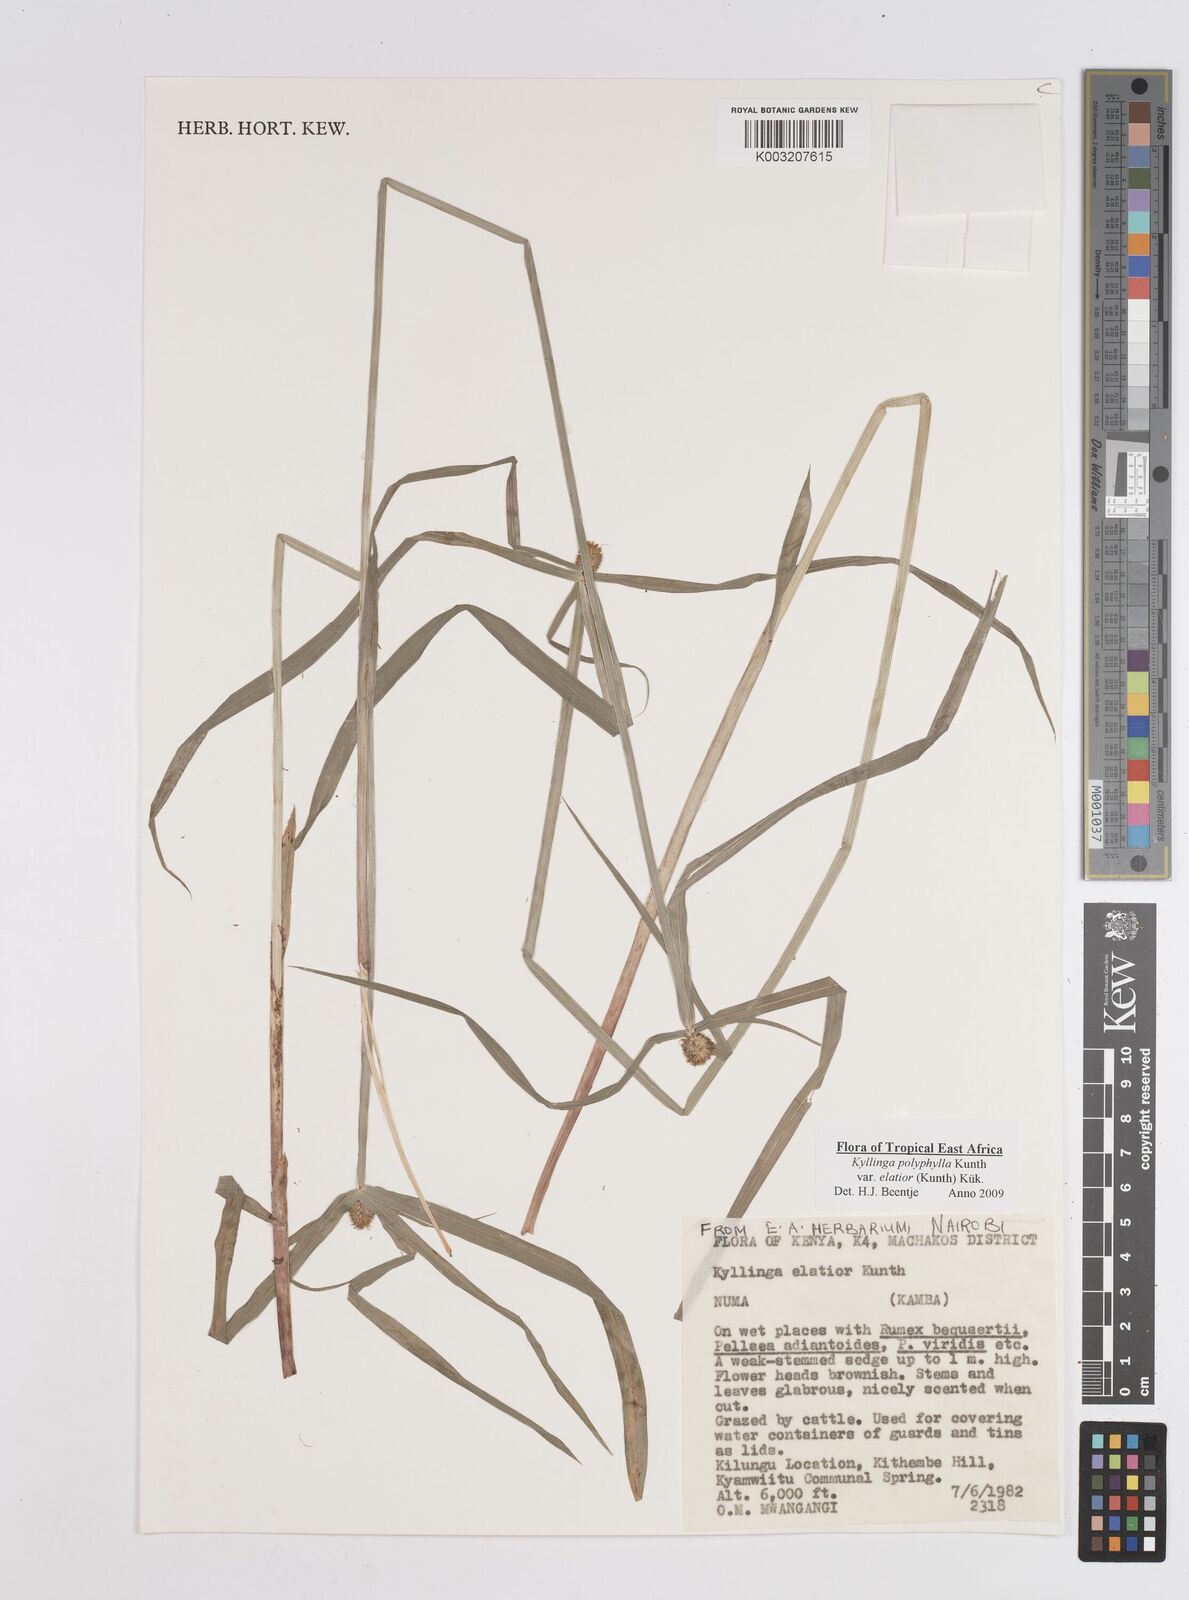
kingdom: Plantae
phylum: Tracheophyta
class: Liliopsida
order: Poales
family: Cyperaceae
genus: Cyperus
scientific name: Cyperus
